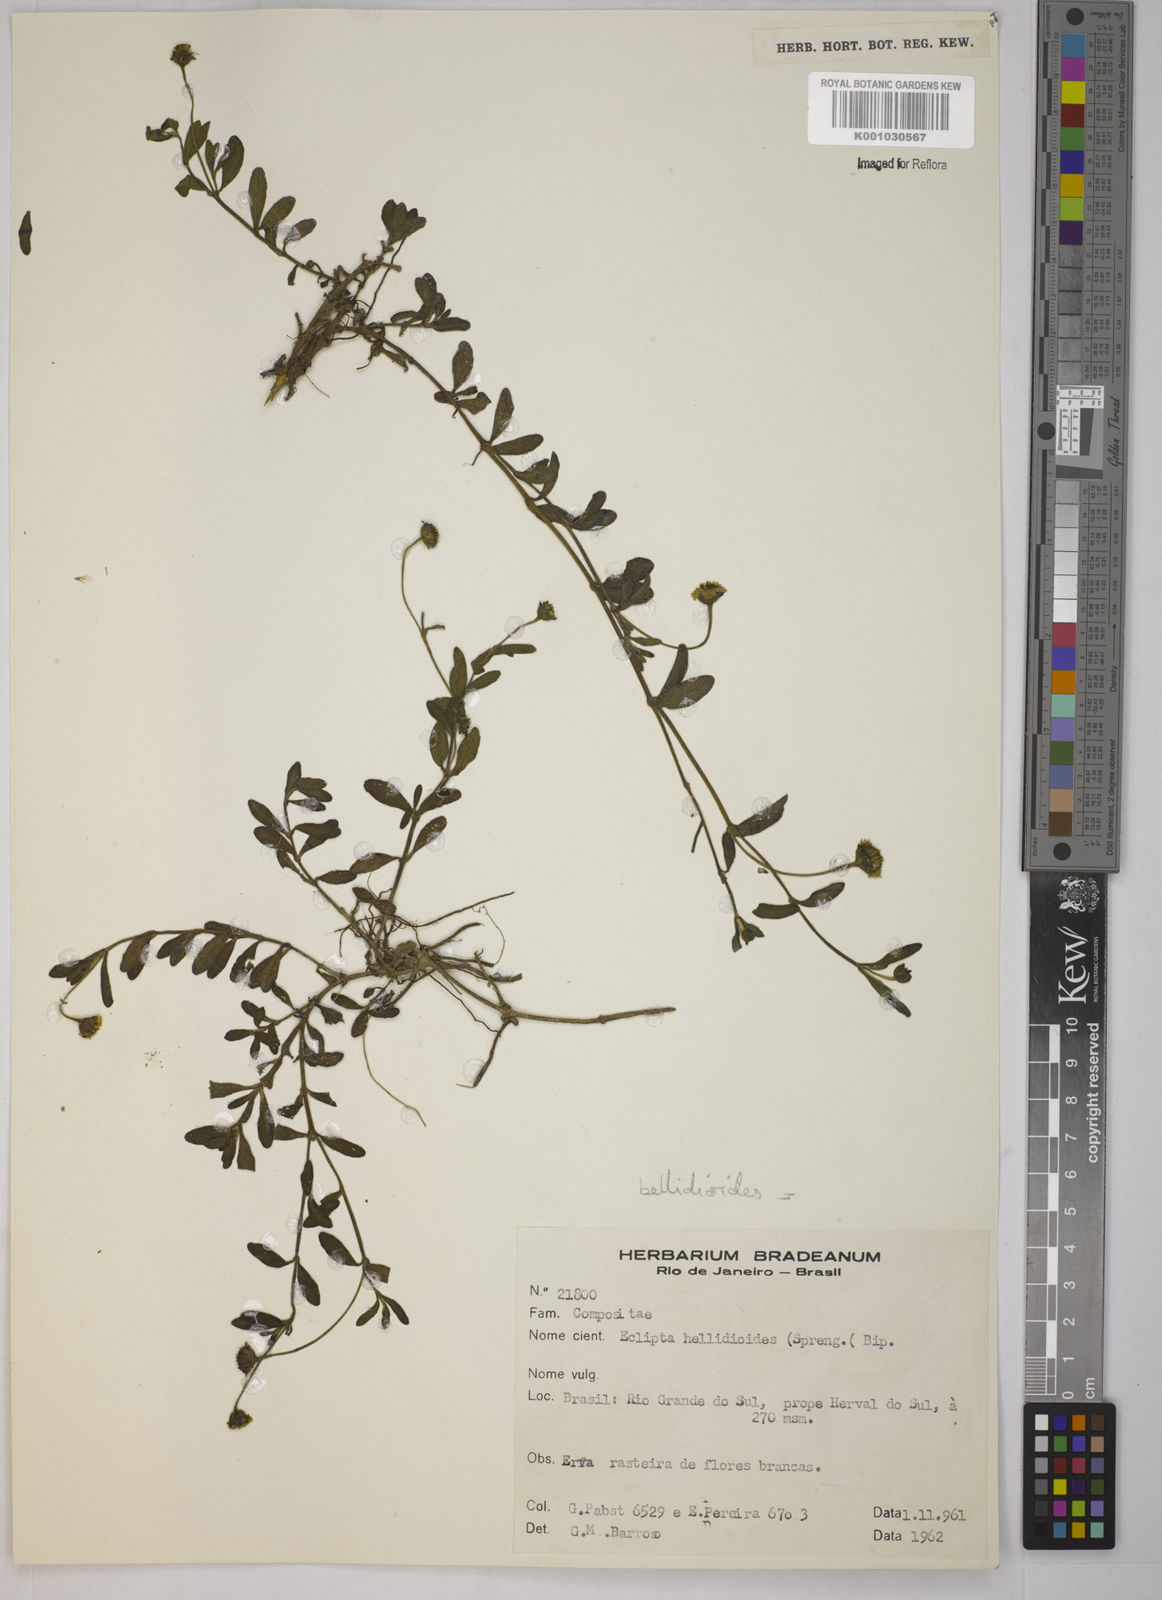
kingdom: Plantae
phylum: Tracheophyta
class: Magnoliopsida
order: Asterales
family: Asteraceae
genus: Jaegeria
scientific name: Jaegeria hirta
